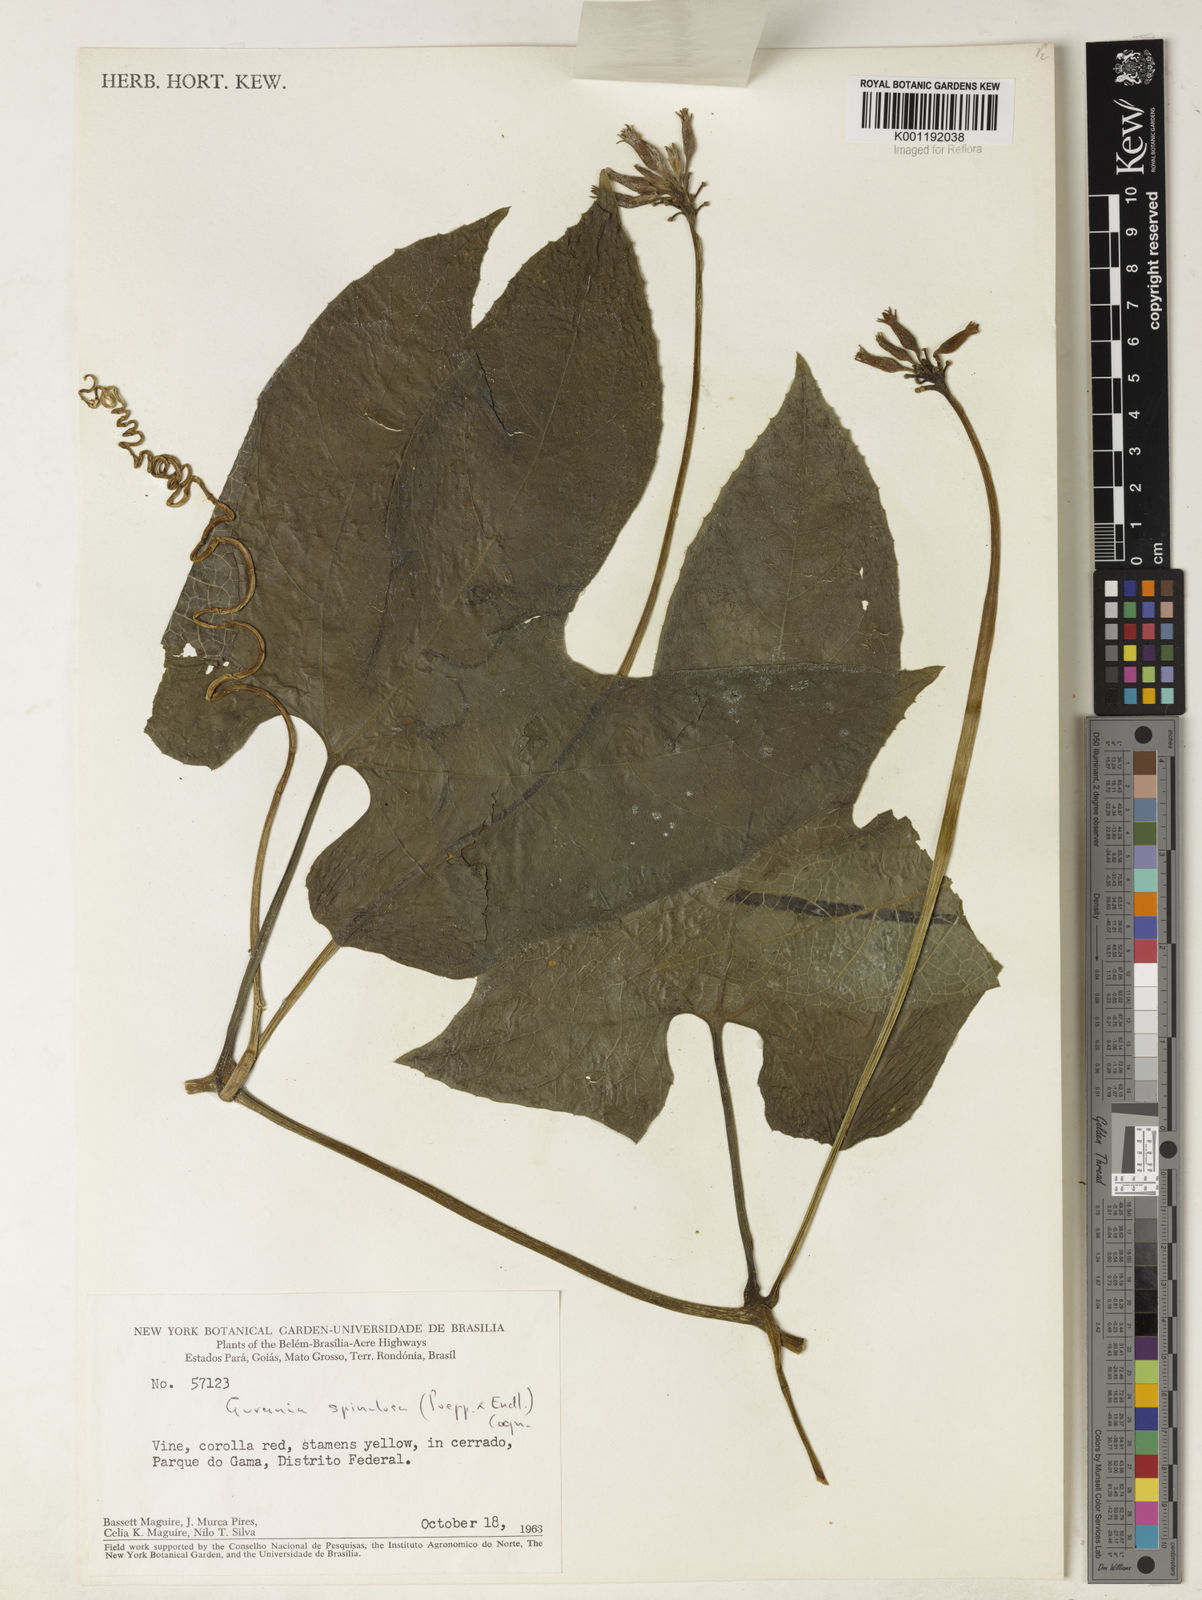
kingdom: Plantae
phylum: Tracheophyta
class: Magnoliopsida
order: Cucurbitales
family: Cucurbitaceae
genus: Gurania
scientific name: Gurania lobata
